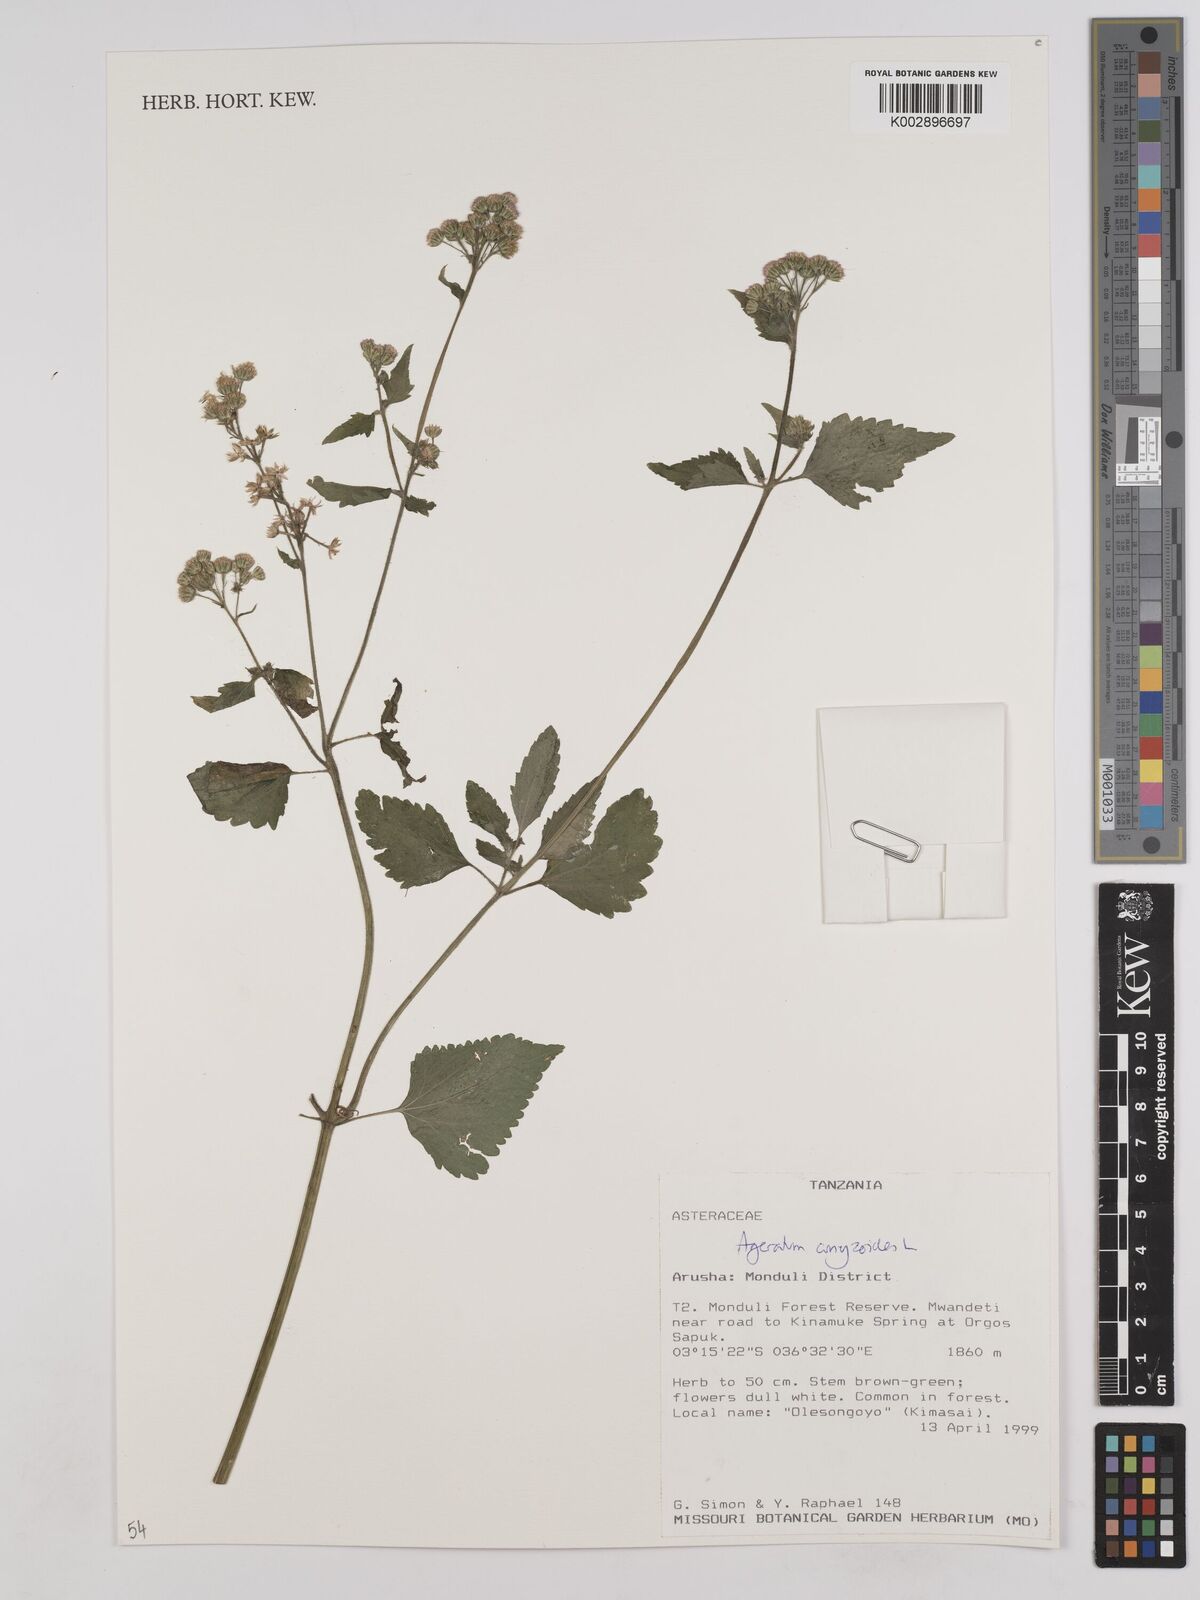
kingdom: Plantae
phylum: Tracheophyta
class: Magnoliopsida
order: Asterales
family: Asteraceae
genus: Ageratum
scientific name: Ageratum conyzoides
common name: Tropical whiteweed
